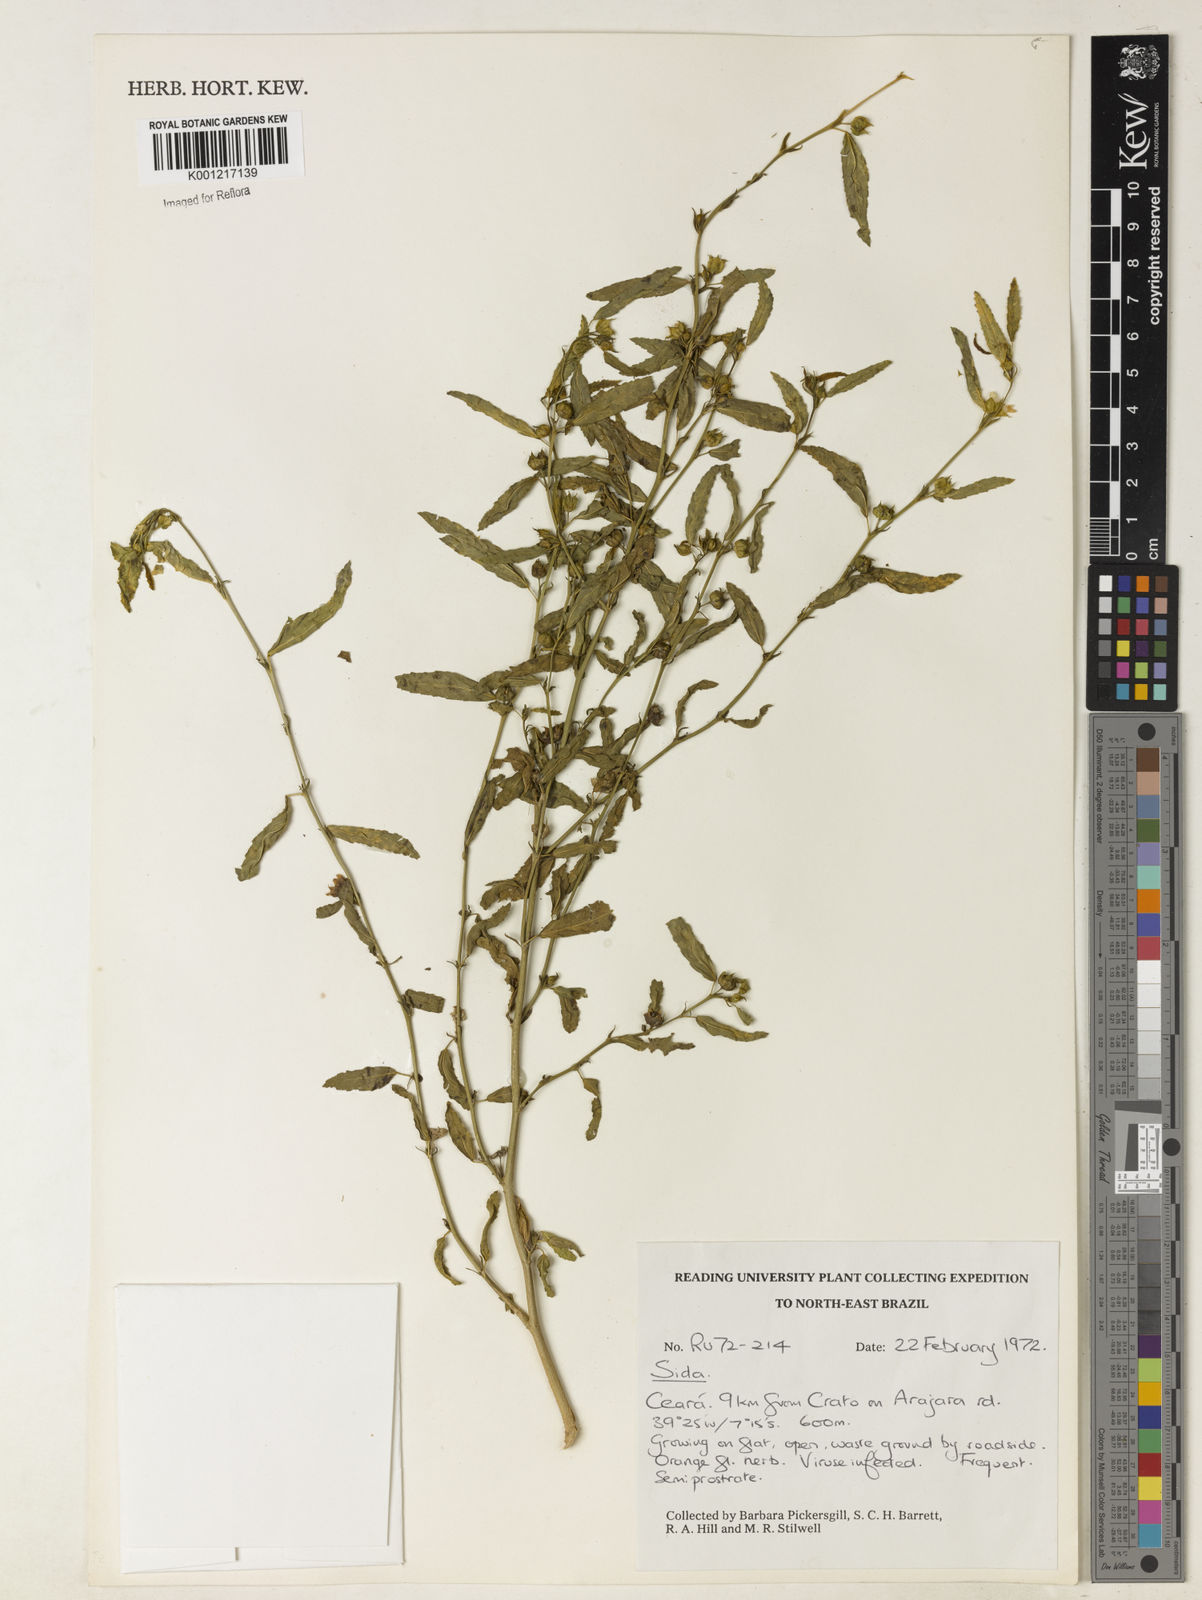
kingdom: Plantae
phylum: Tracheophyta
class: Magnoliopsida
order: Malvales
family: Malvaceae
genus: Sida
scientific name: Sida
